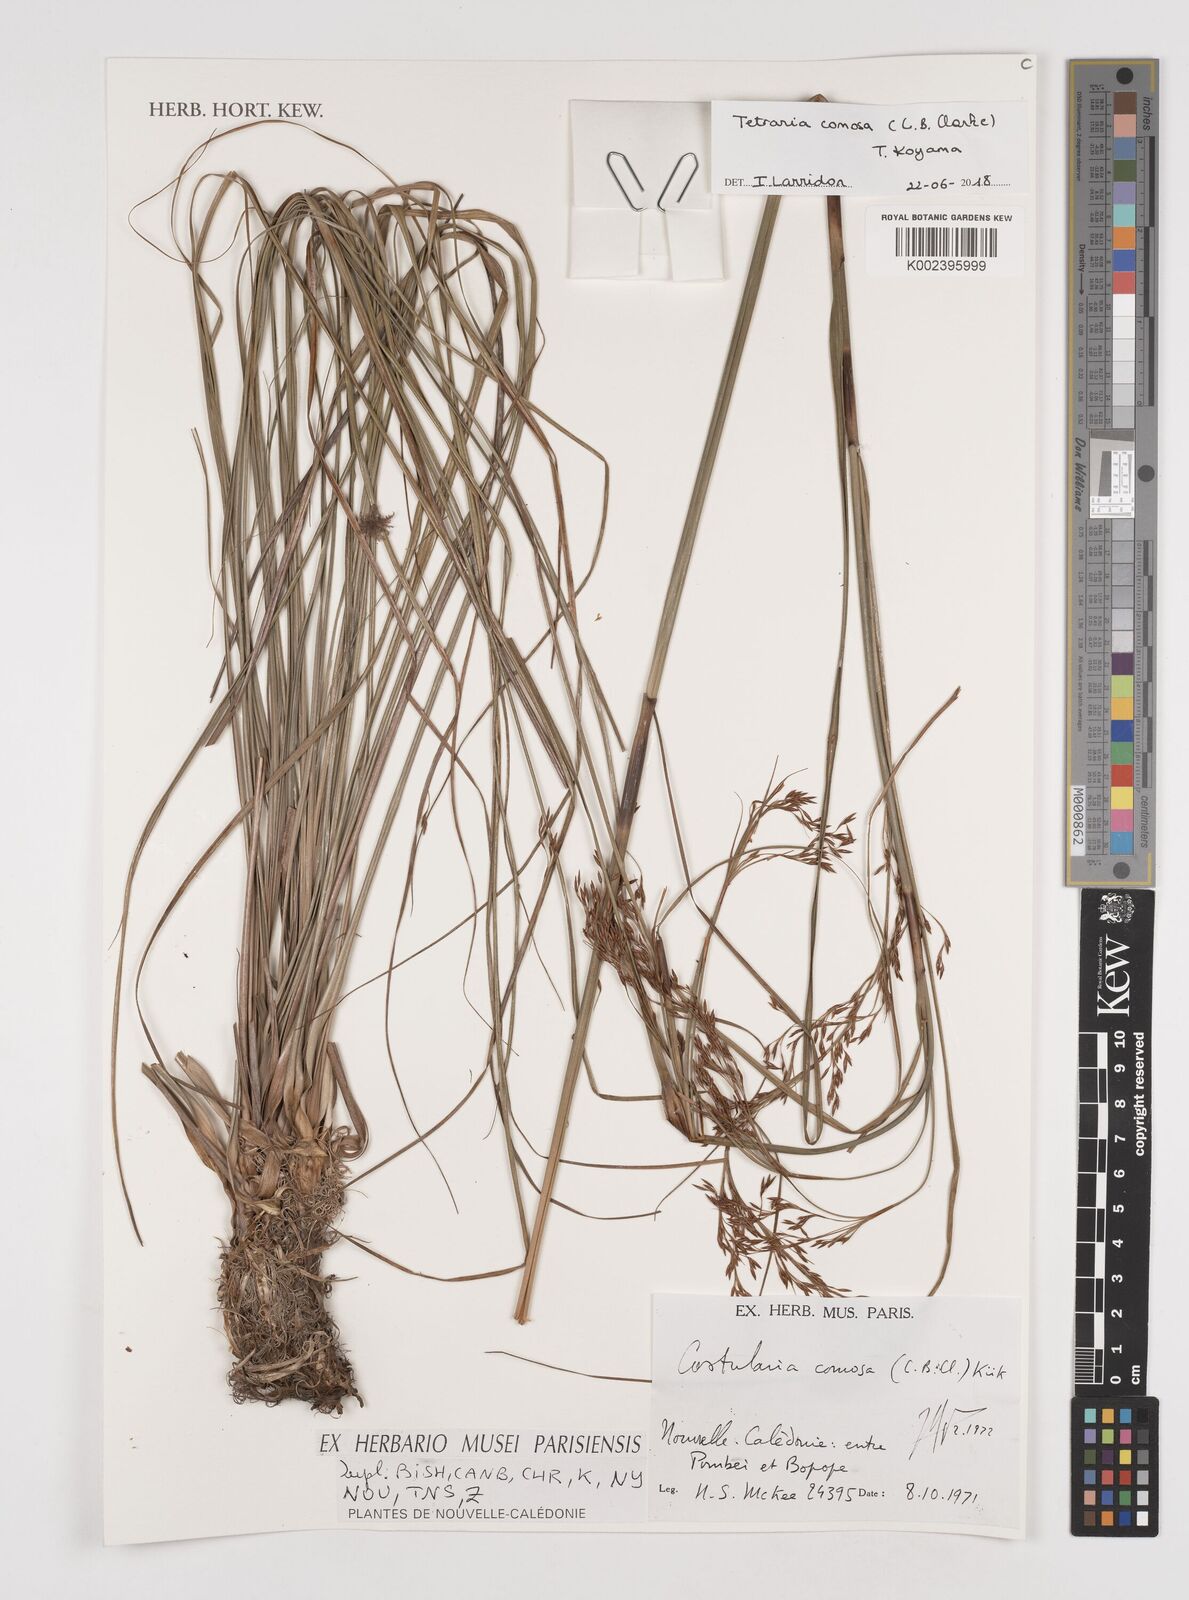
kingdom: Plantae
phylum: Tracheophyta
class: Liliopsida
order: Poales
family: Cyperaceae
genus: Tetraria
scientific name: Tetraria comosa
